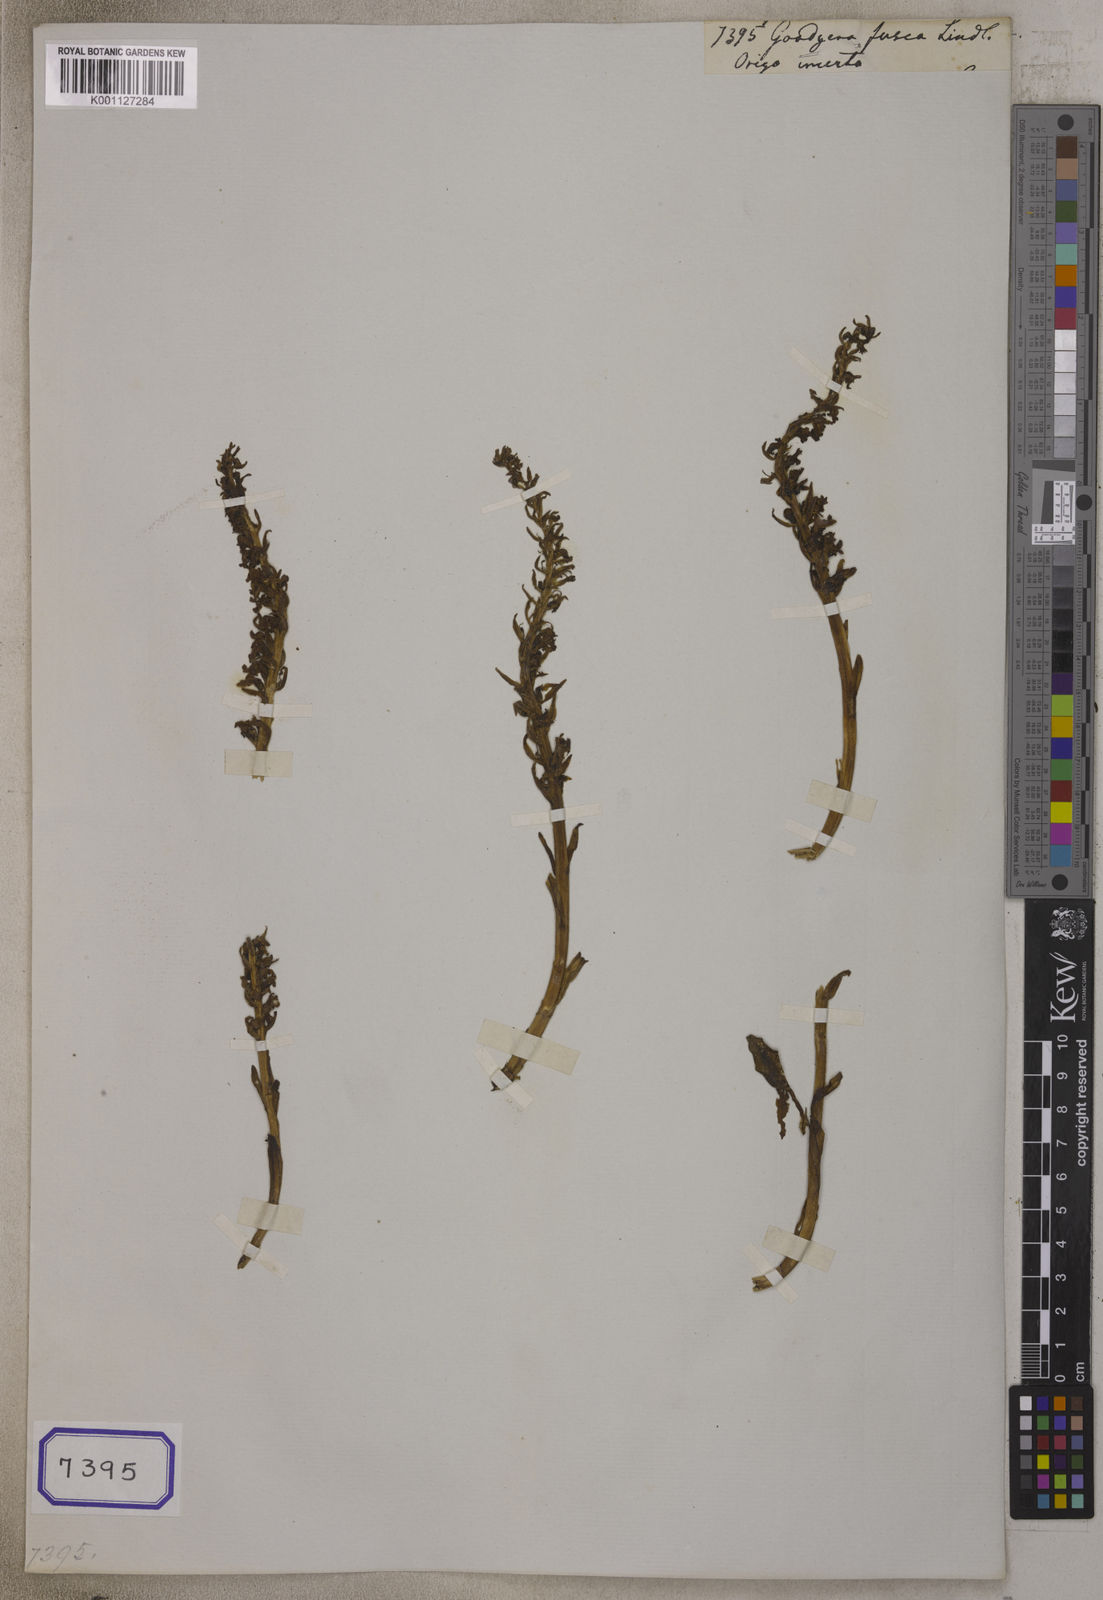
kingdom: Plantae
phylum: Tracheophyta
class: Liliopsida
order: Asparagales
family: Orchidaceae
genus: Goodyera
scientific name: Goodyera fusca
